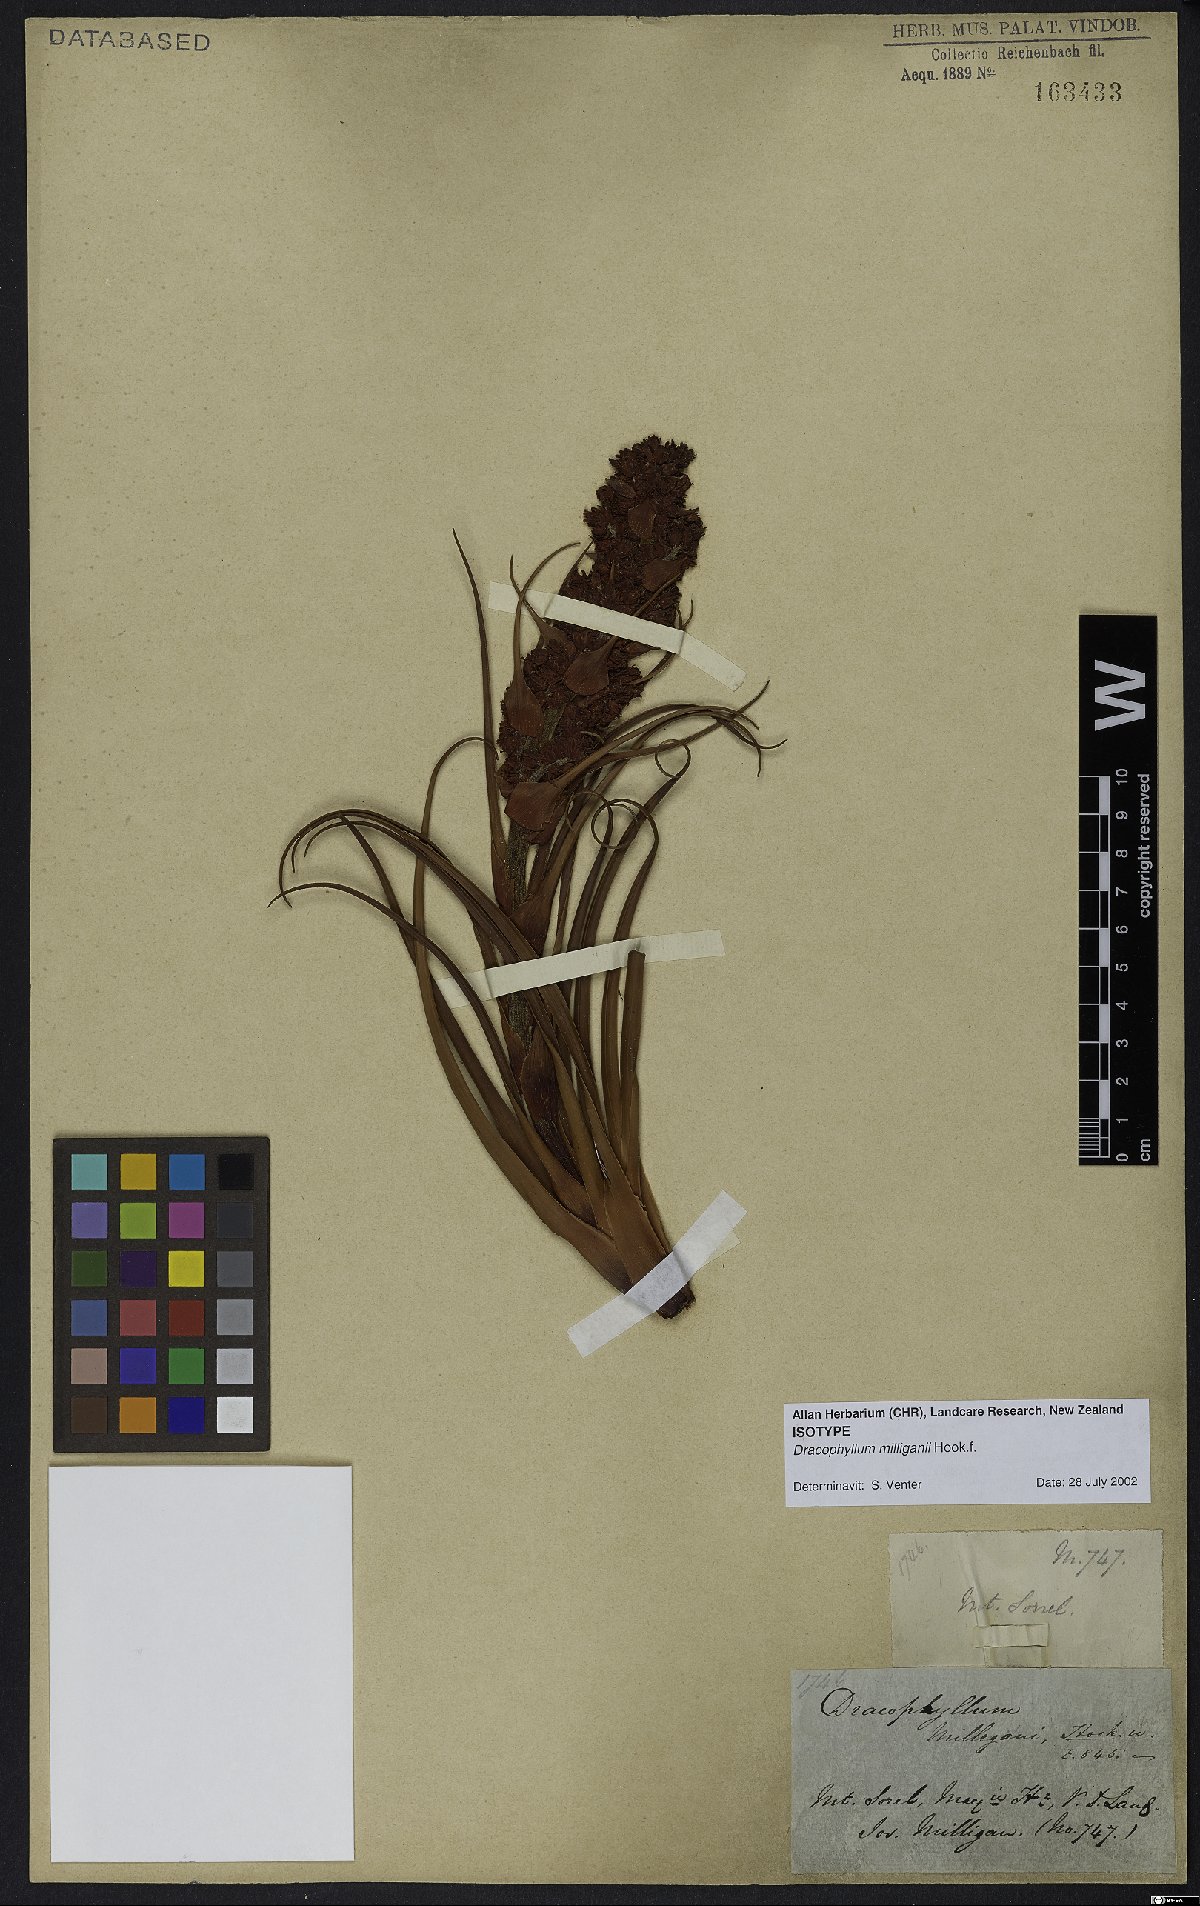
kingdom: Plantae
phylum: Tracheophyta
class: Magnoliopsida
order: Ericales
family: Ericaceae
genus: Dracophyllum
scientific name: Dracophyllum milliganii
